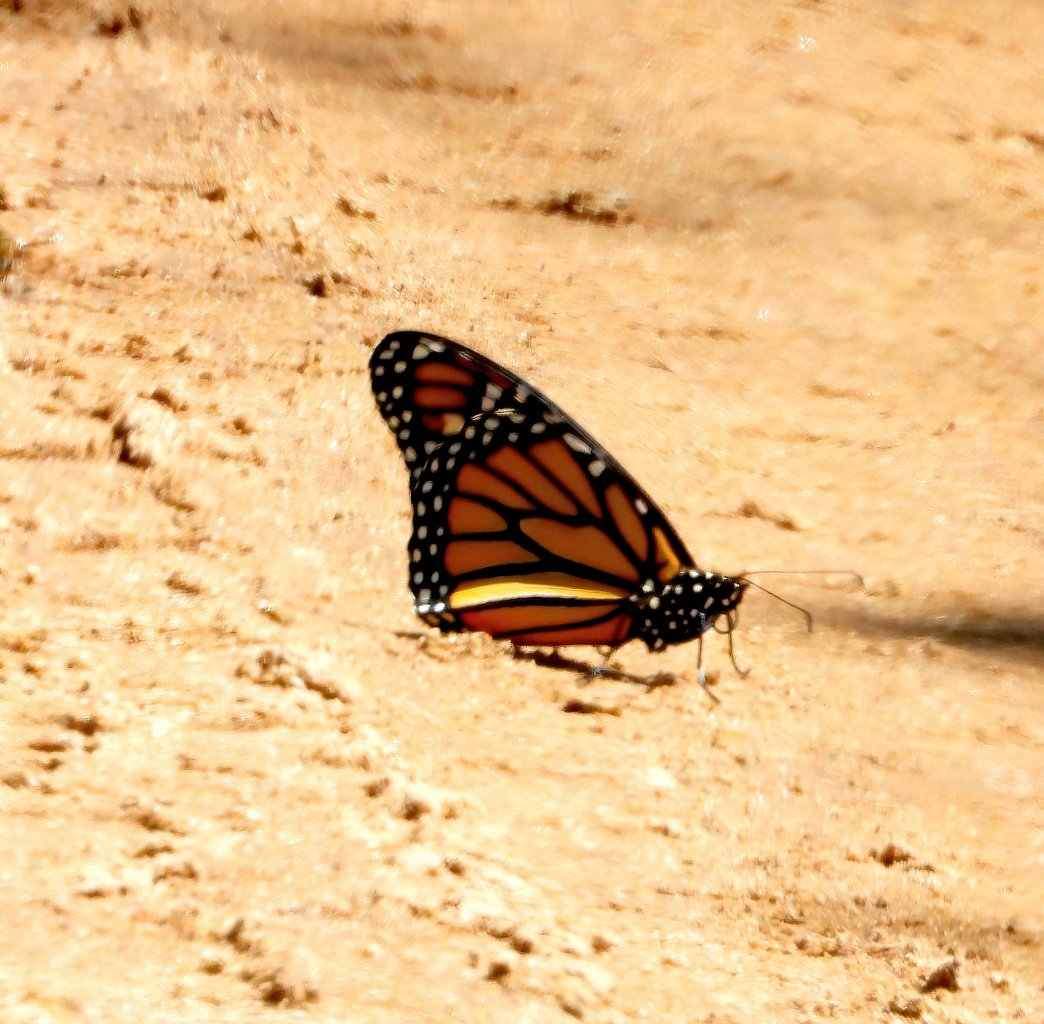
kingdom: Animalia
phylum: Arthropoda
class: Insecta
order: Lepidoptera
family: Nymphalidae
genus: Danaus
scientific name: Danaus plexippus
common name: Monarch
